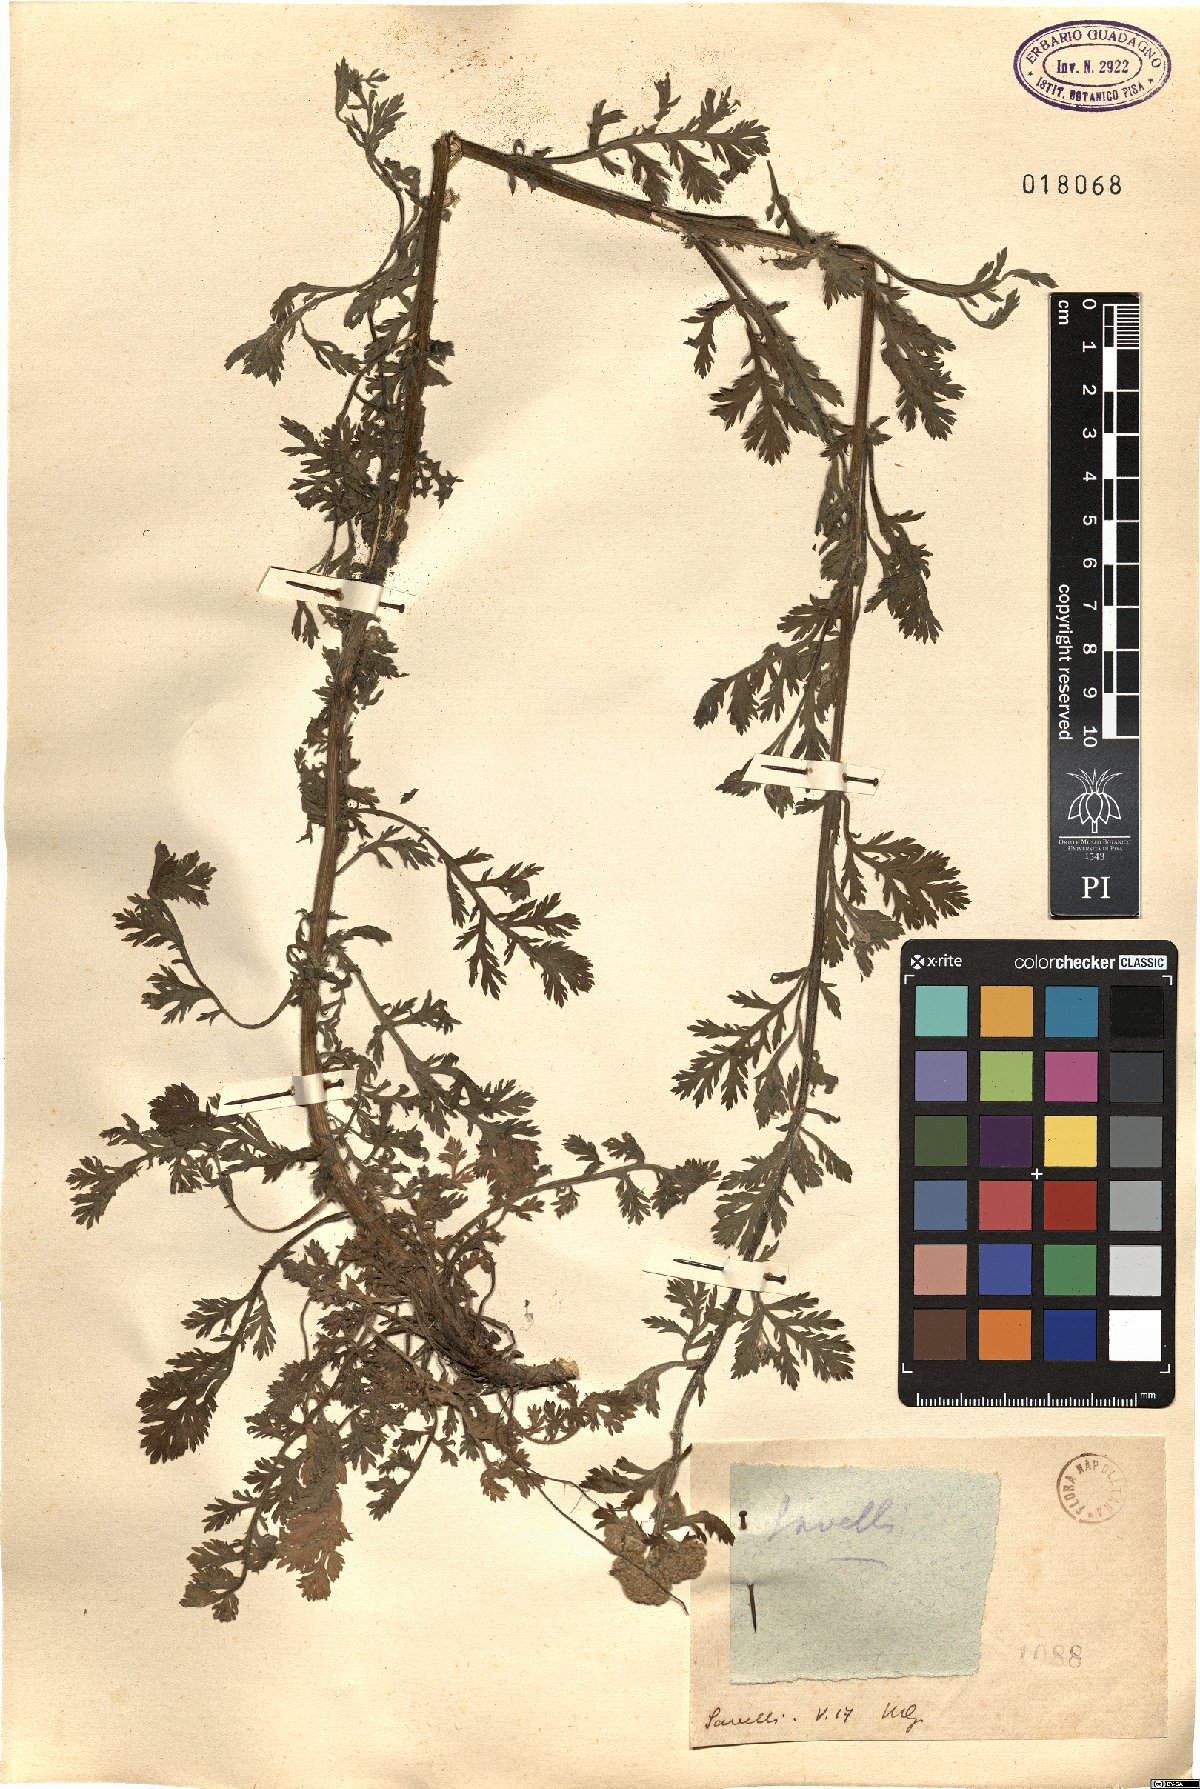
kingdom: Plantae
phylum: Tracheophyta
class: Magnoliopsida
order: Asterales
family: Asteraceae
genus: Achillea
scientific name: Achillea
